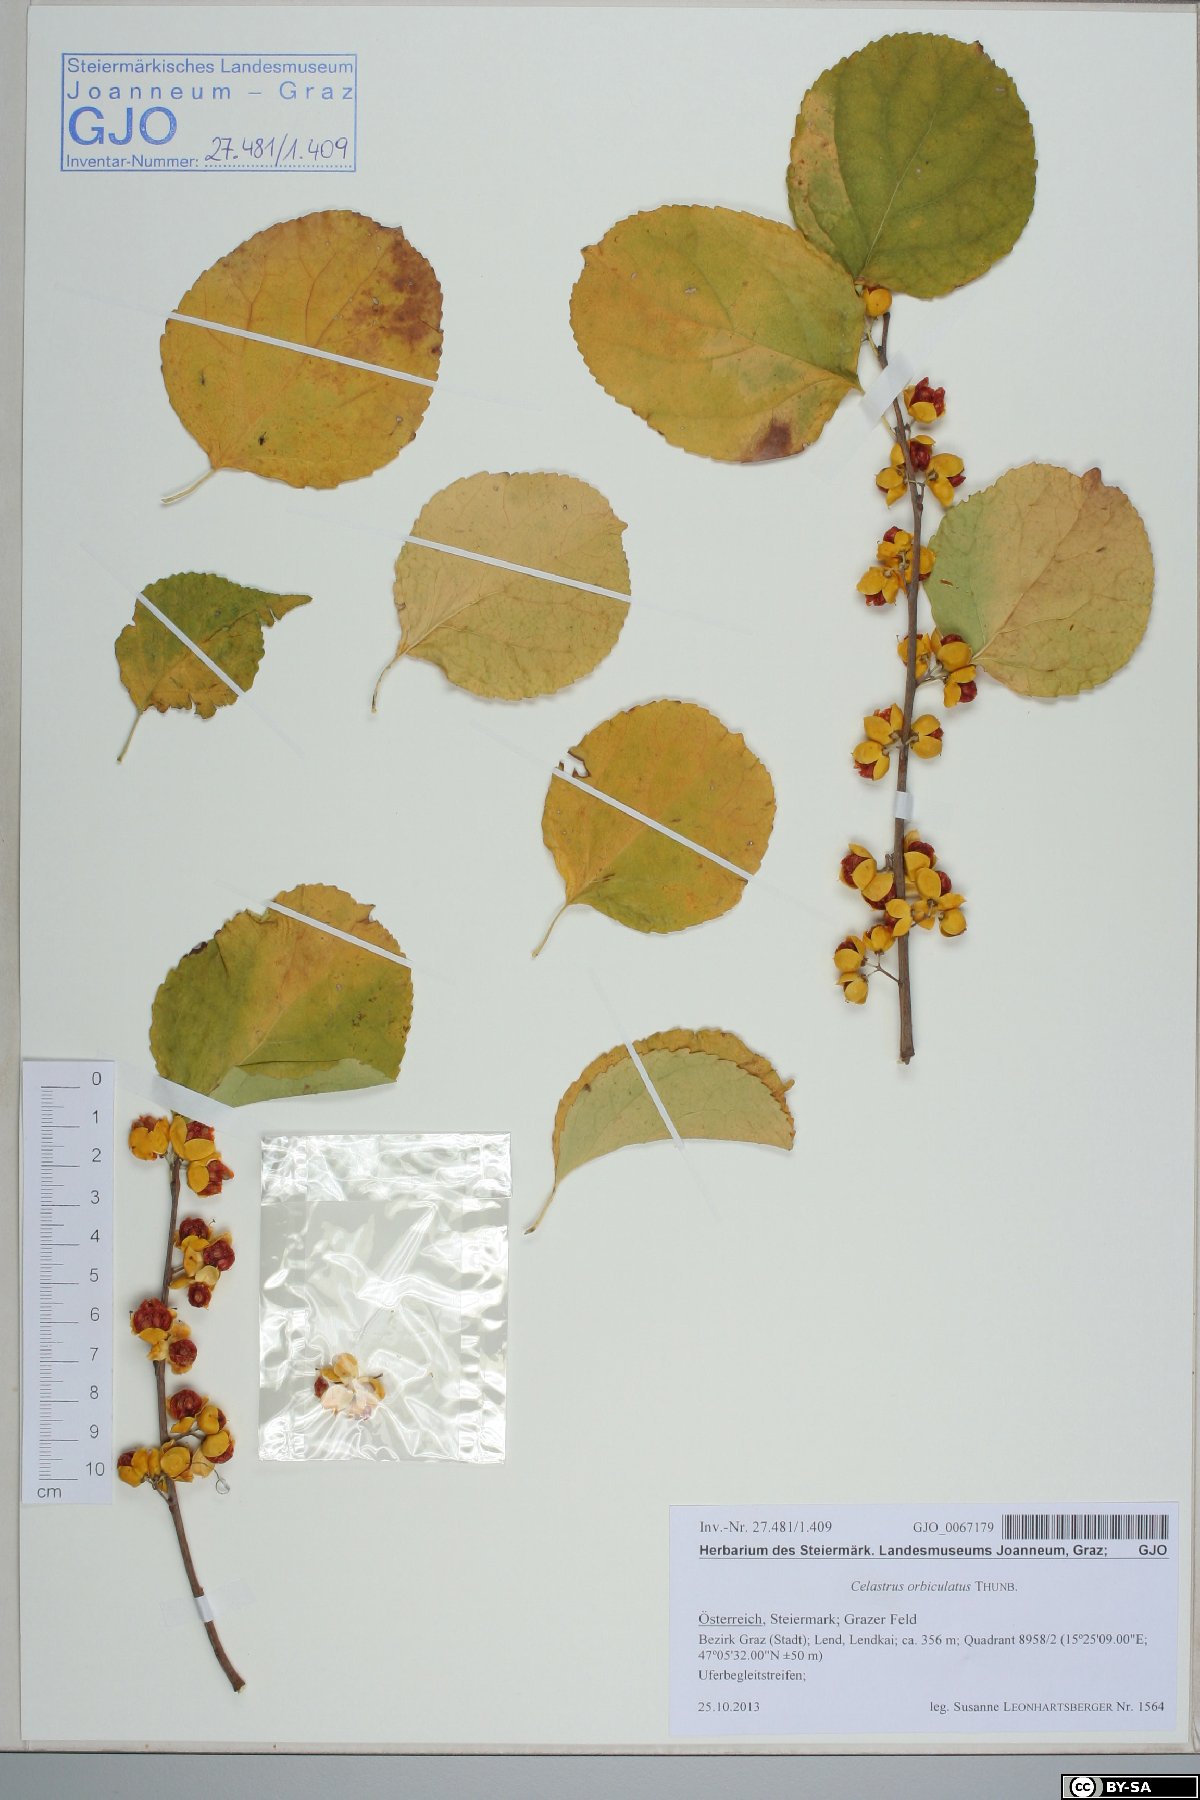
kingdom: Plantae
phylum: Tracheophyta
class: Magnoliopsida
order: Celastrales
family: Celastraceae
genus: Celastrus
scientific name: Celastrus orbiculatus
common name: Oriental bittersweet
